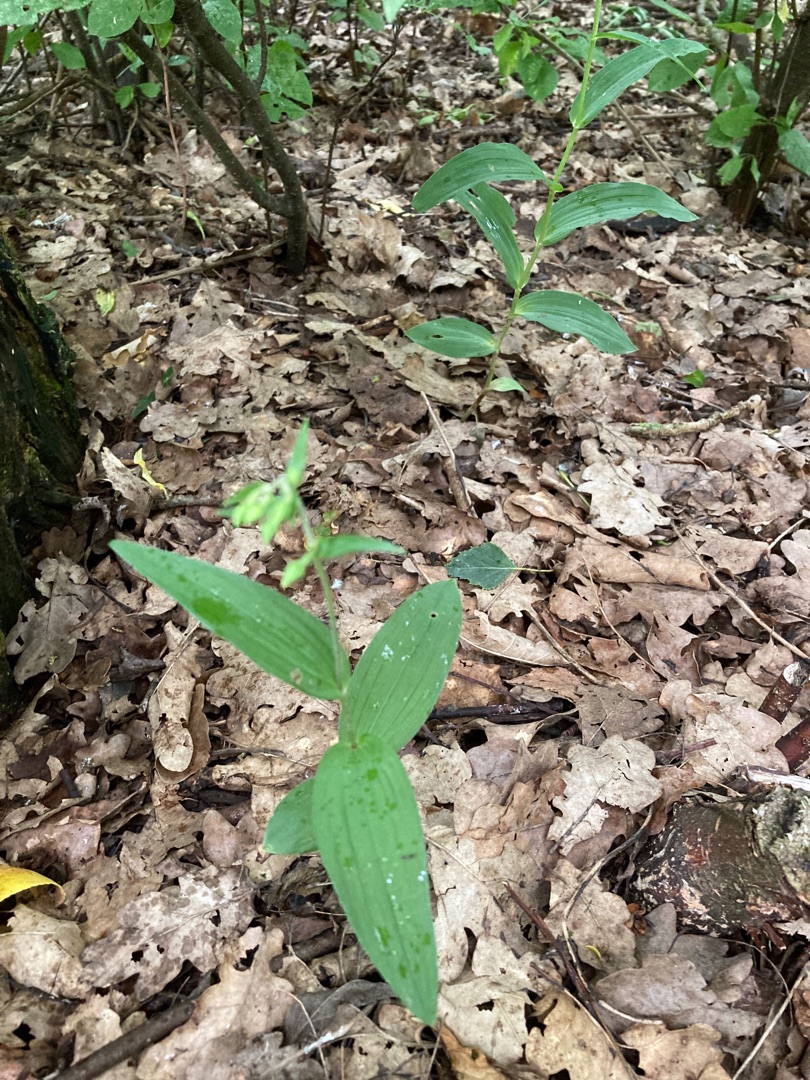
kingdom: Plantae
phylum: Tracheophyta
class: Liliopsida
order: Asparagales
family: Orchidaceae
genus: Epipactis
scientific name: Epipactis helleborine
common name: Skov-hullæbe
